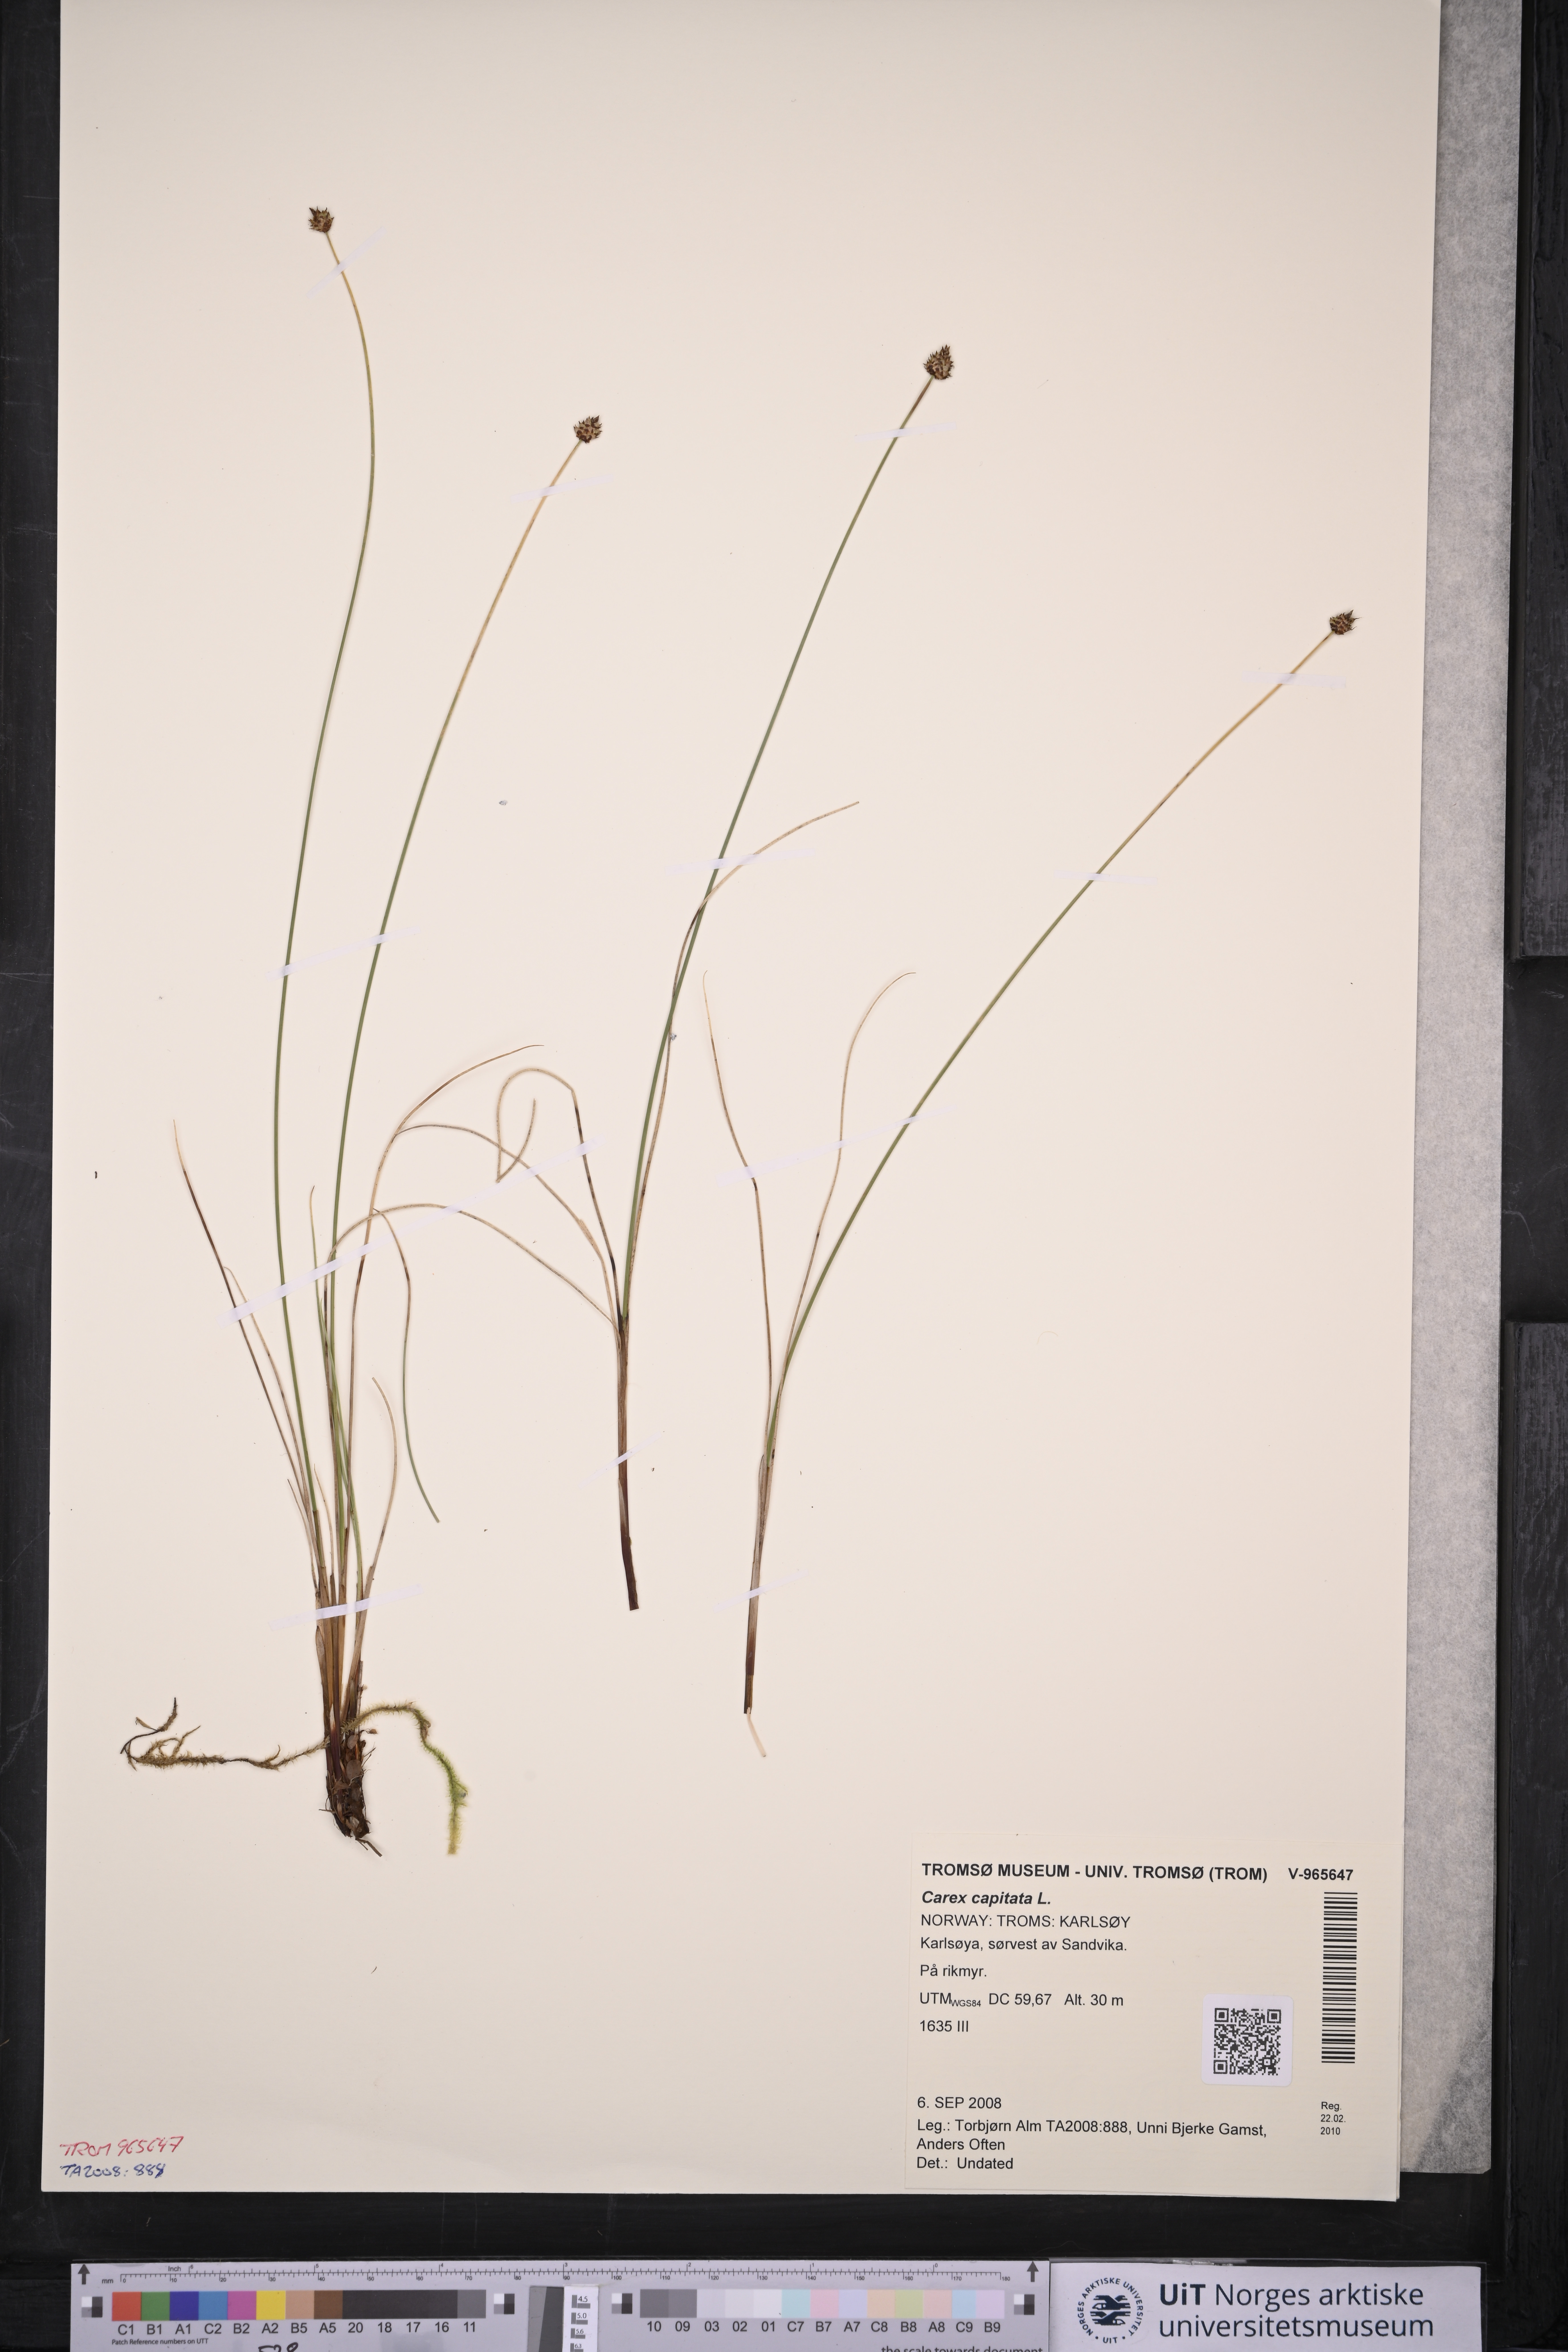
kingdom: Plantae
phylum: Tracheophyta
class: Liliopsida
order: Poales
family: Cyperaceae
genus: Carex
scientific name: Carex capitata
